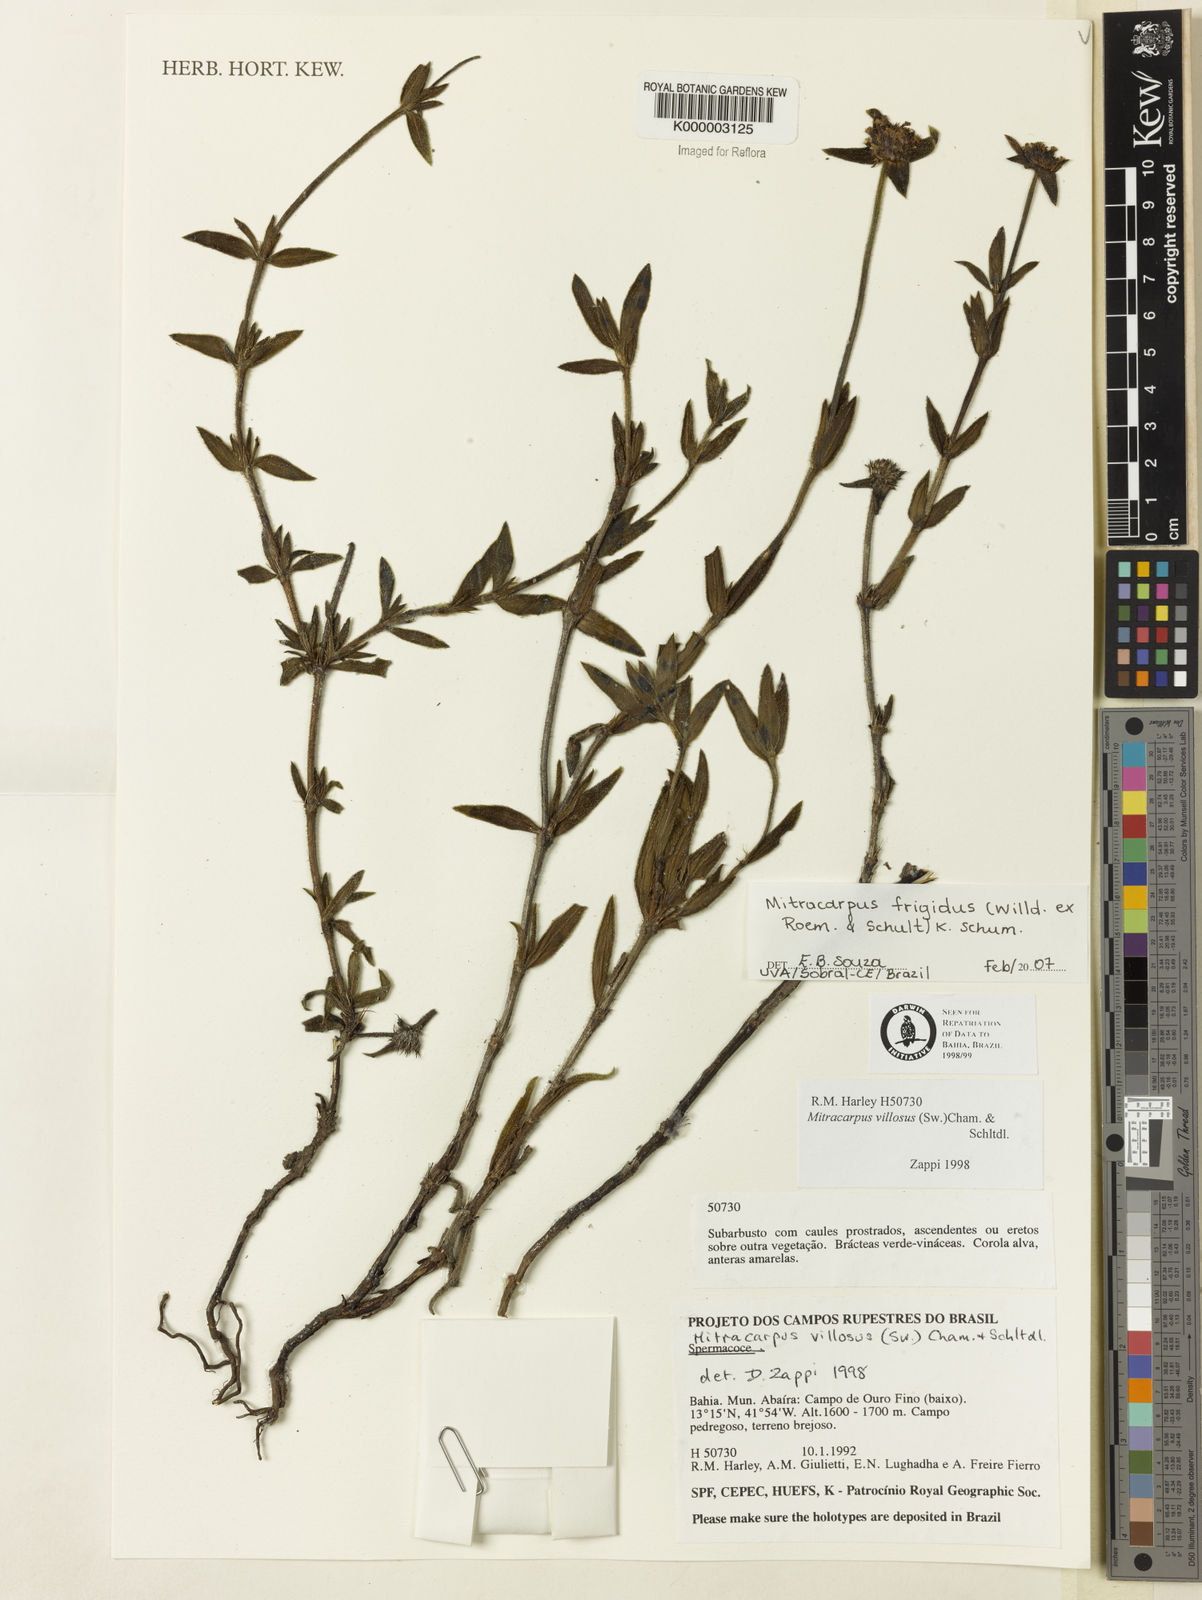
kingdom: Plantae
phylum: Tracheophyta
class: Magnoliopsida
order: Gentianales
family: Rubiaceae
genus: Mitracarpus
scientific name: Mitracarpus frigidus
